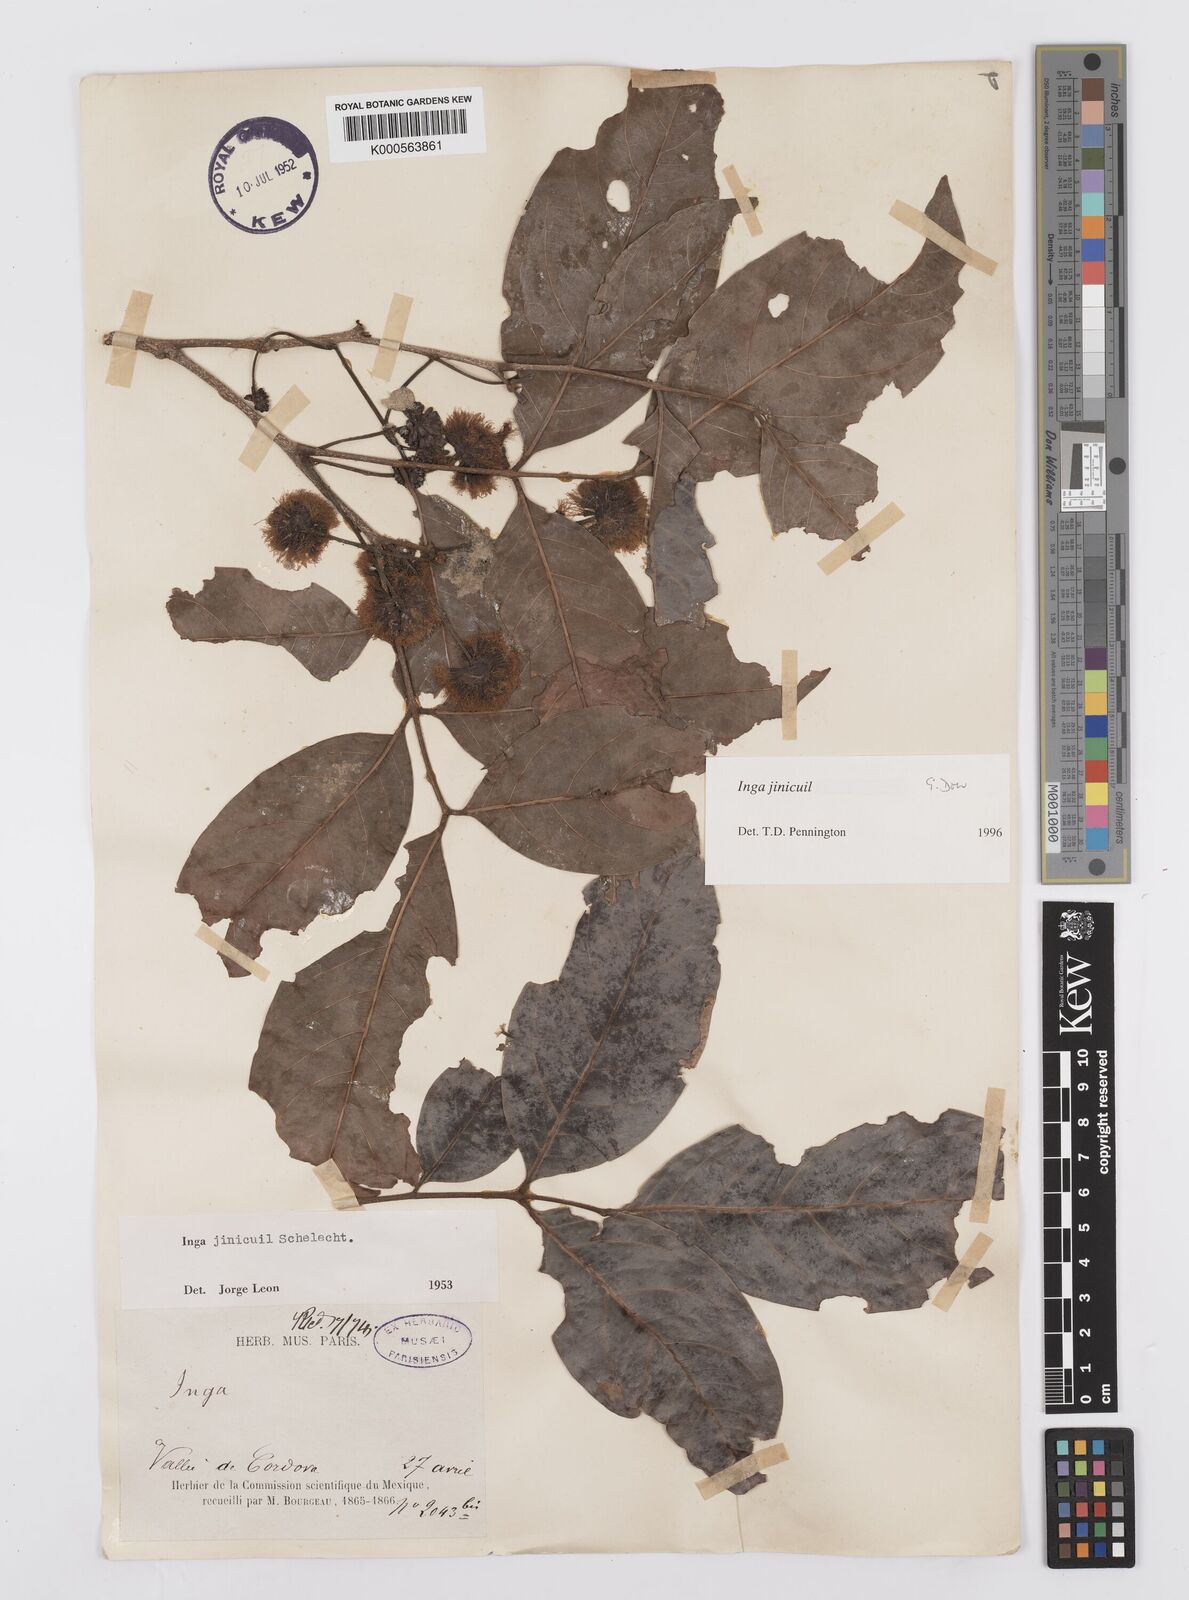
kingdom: Plantae
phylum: Tracheophyta
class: Magnoliopsida
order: Fabales
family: Fabaceae
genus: Inga
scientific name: Inga inicuil
